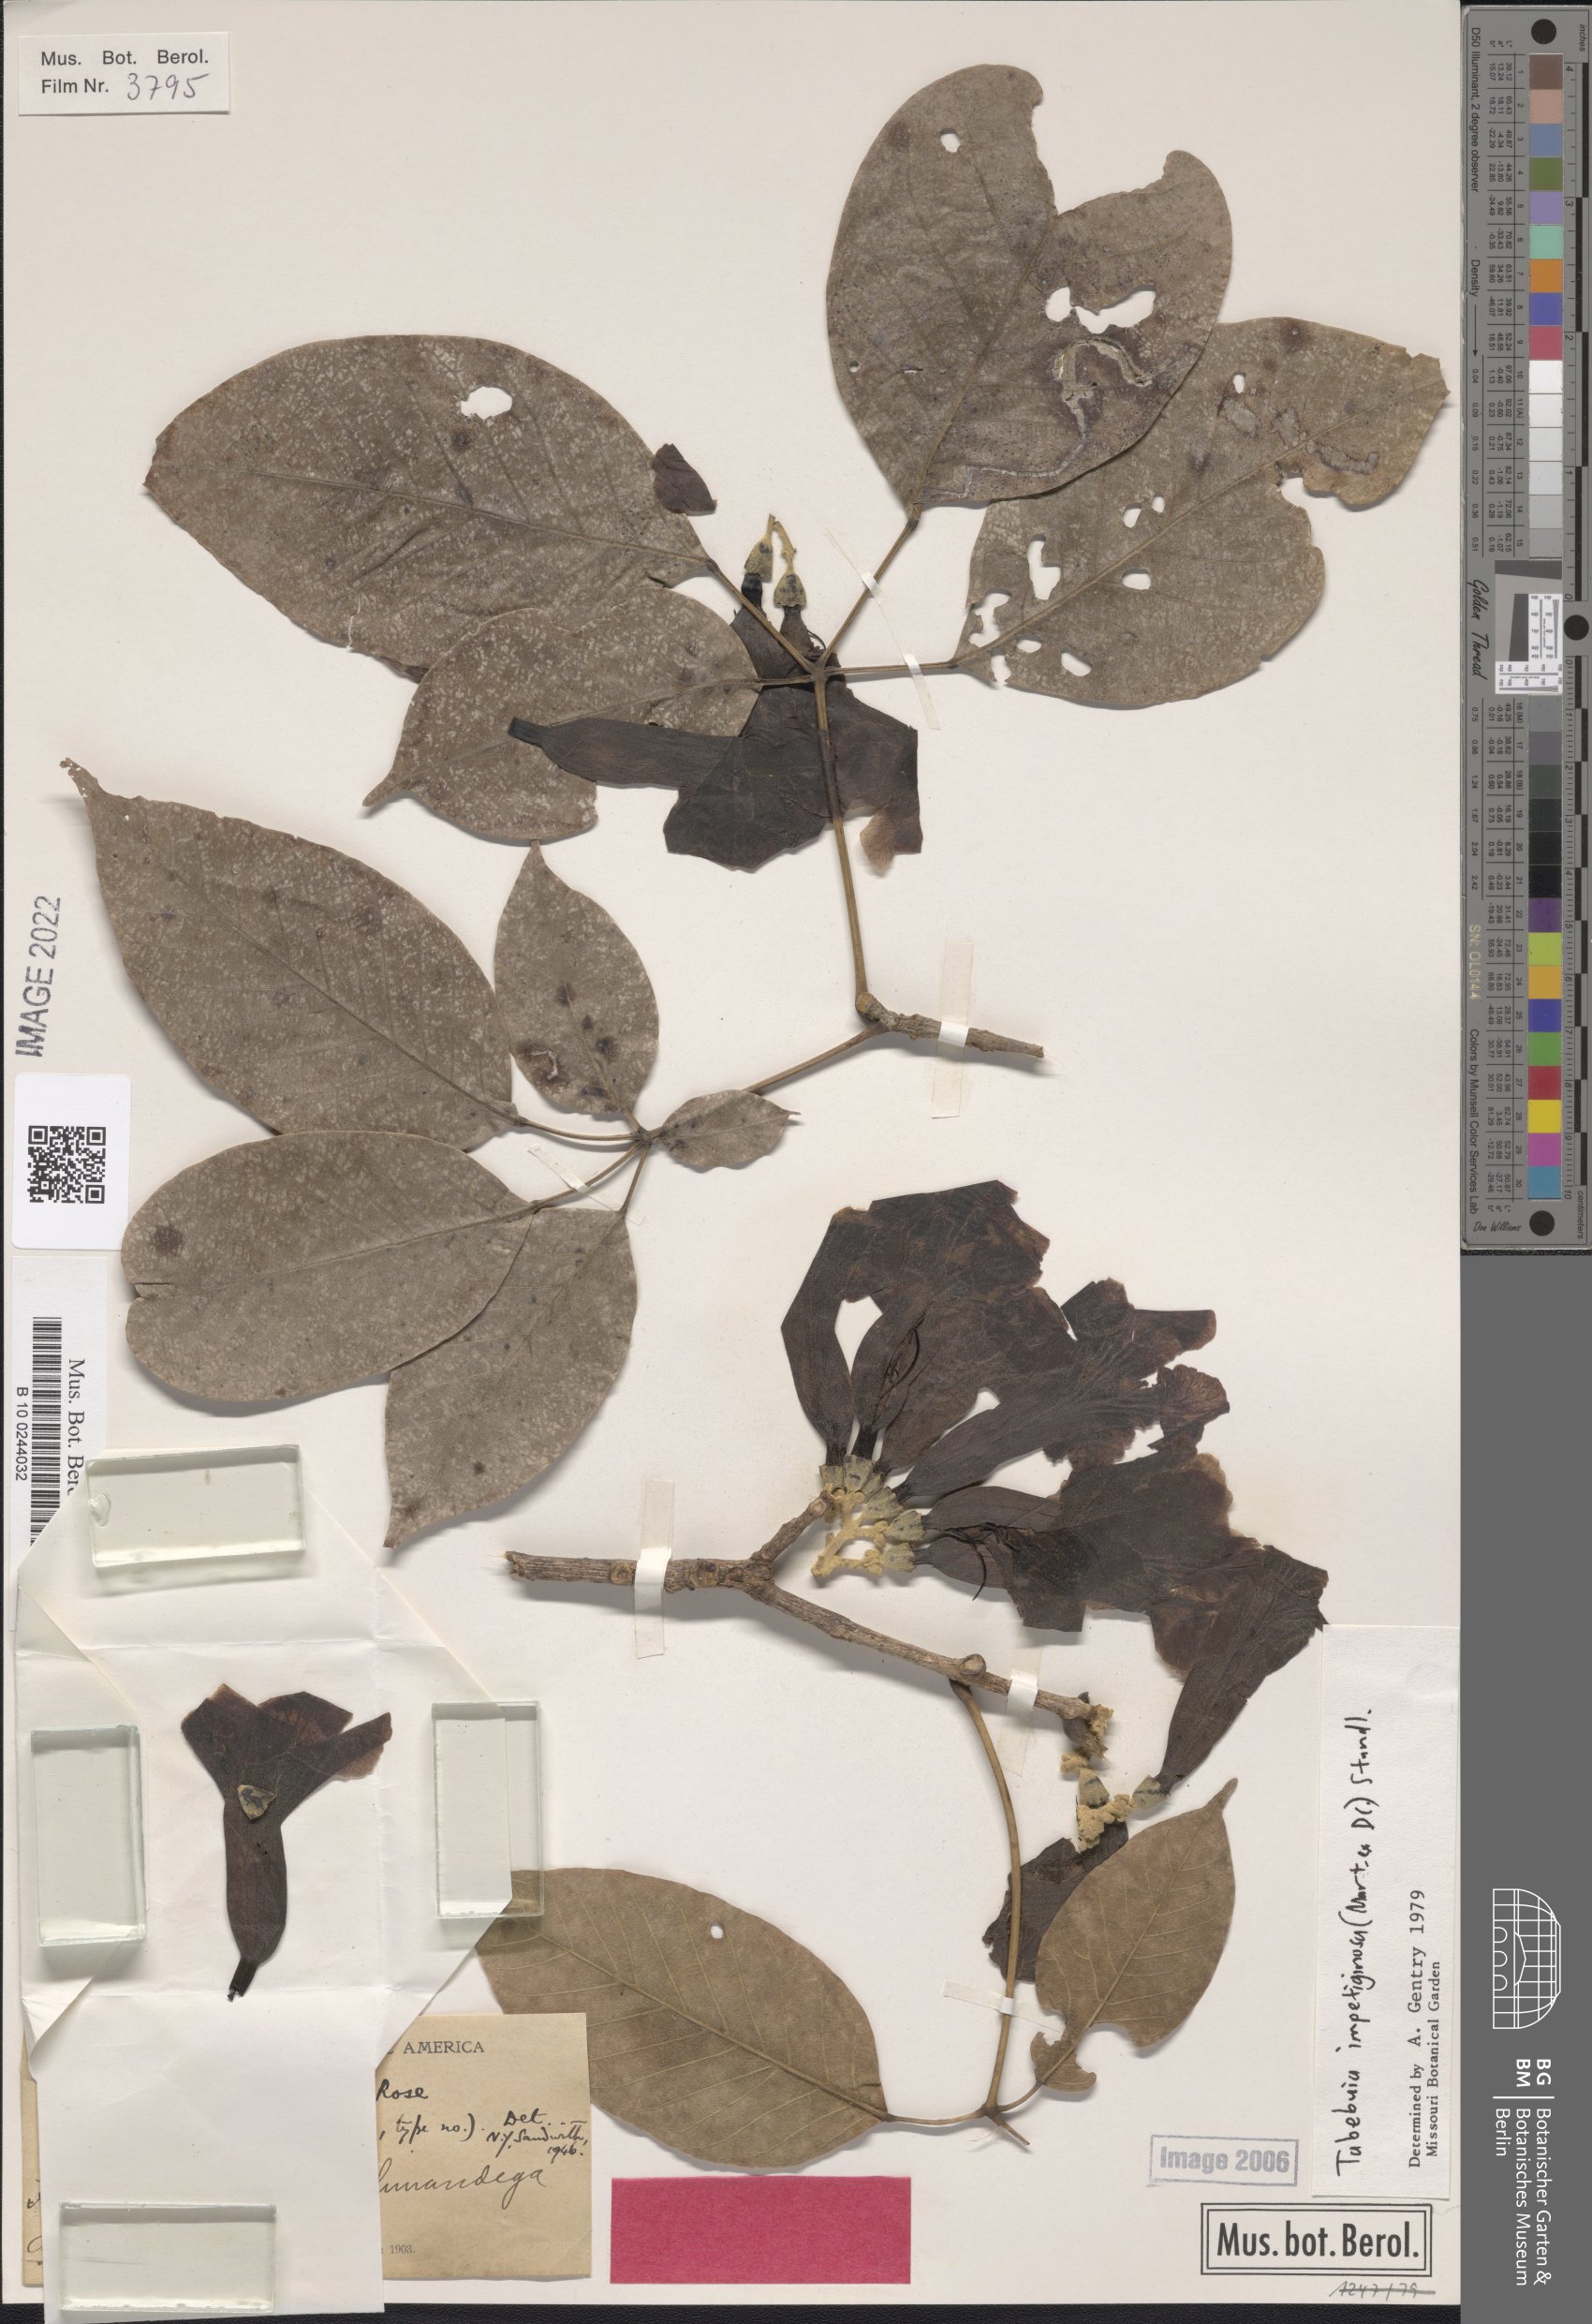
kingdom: Plantae
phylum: Tracheophyta
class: Magnoliopsida
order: Lamiales
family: Bignoniaceae
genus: Handroanthus
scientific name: Handroanthus impetiginosum
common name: Pink trumpet tree
